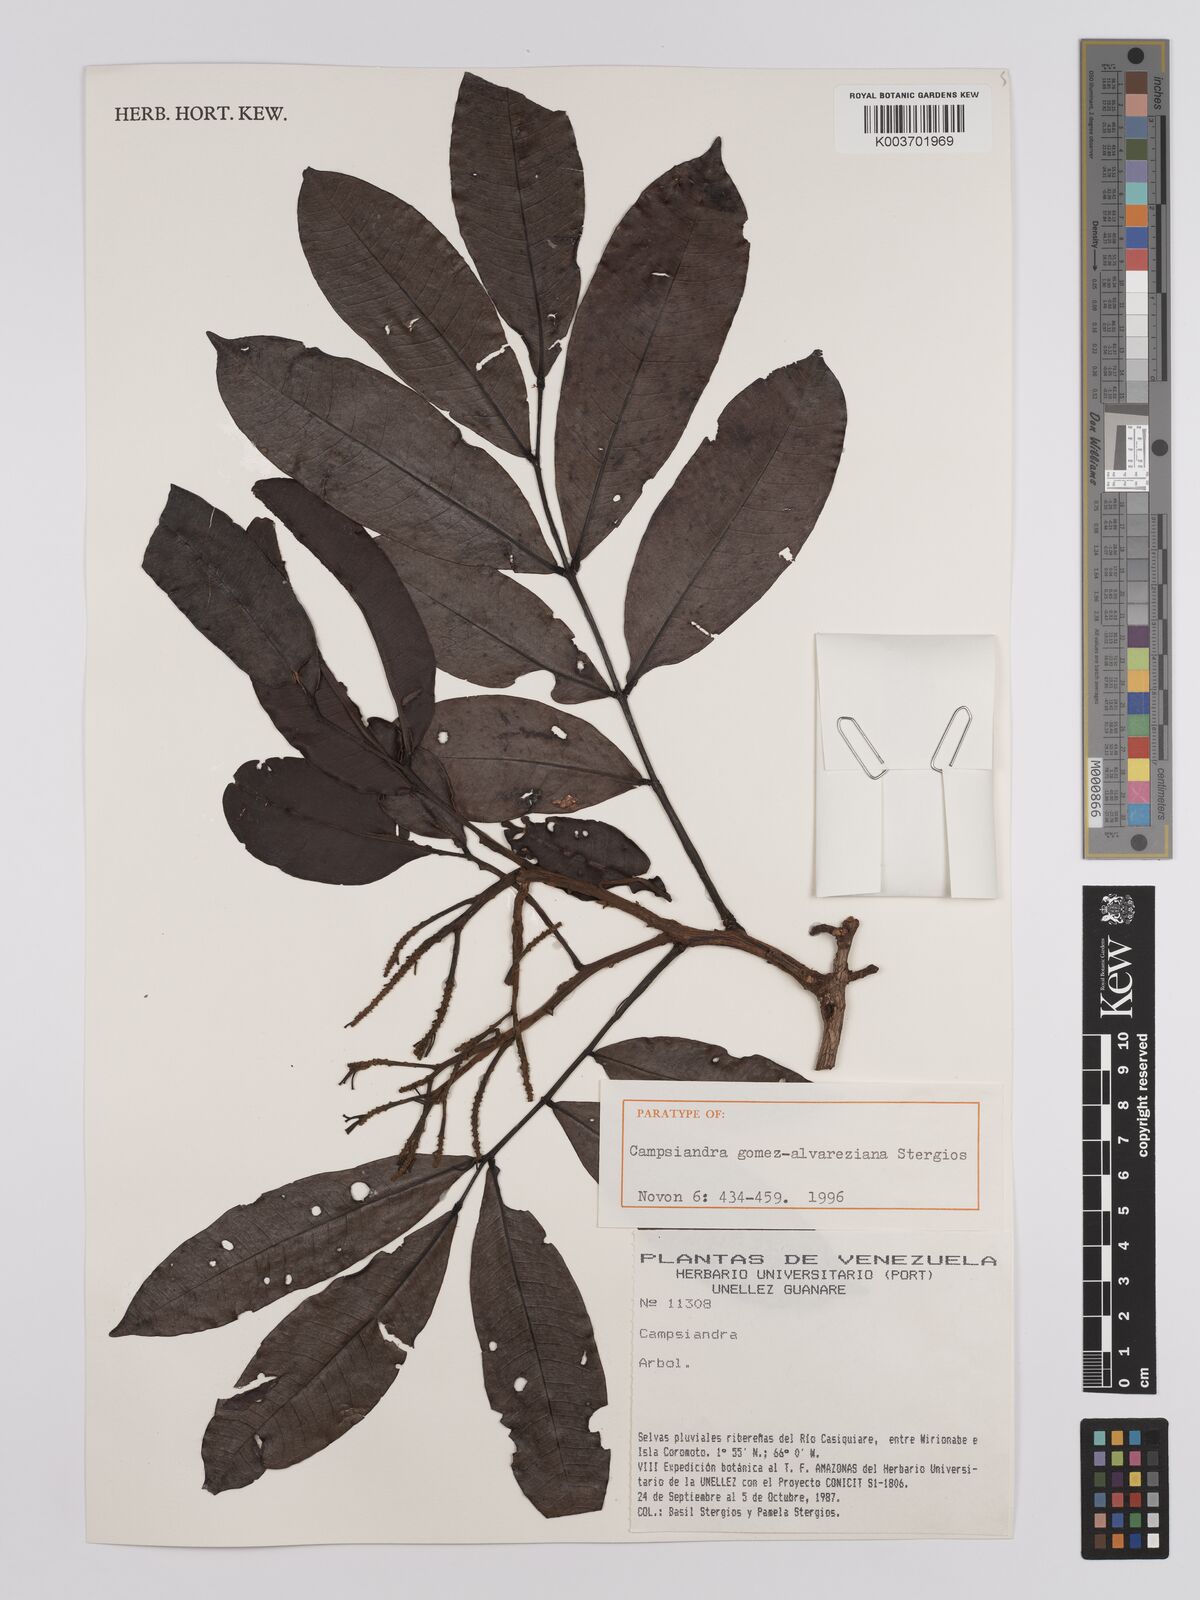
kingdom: Plantae
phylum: Tracheophyta
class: Magnoliopsida
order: Fabales
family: Fabaceae
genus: Campsiandra
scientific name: Campsiandra gomez-alvareziana
